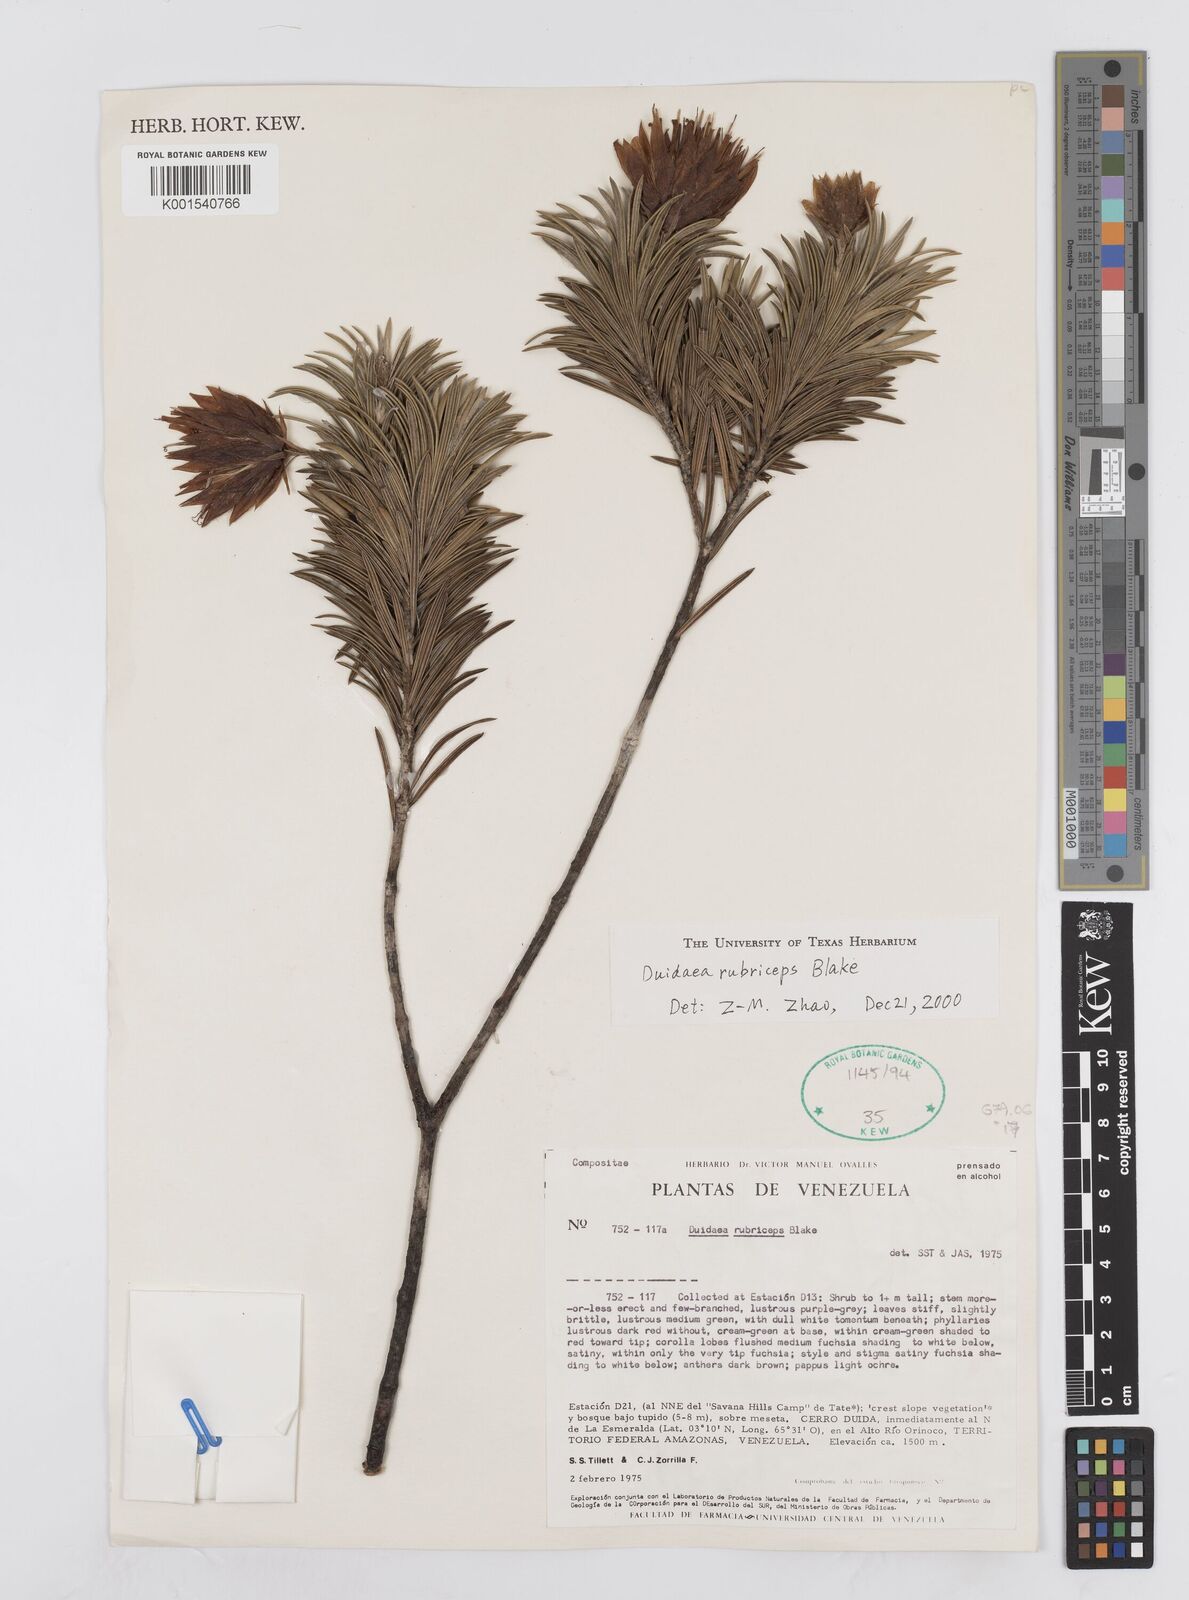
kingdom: Plantae
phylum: Tracheophyta
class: Magnoliopsida
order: Asterales
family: Asteraceae
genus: Duidaea
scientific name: Duidaea tatei
